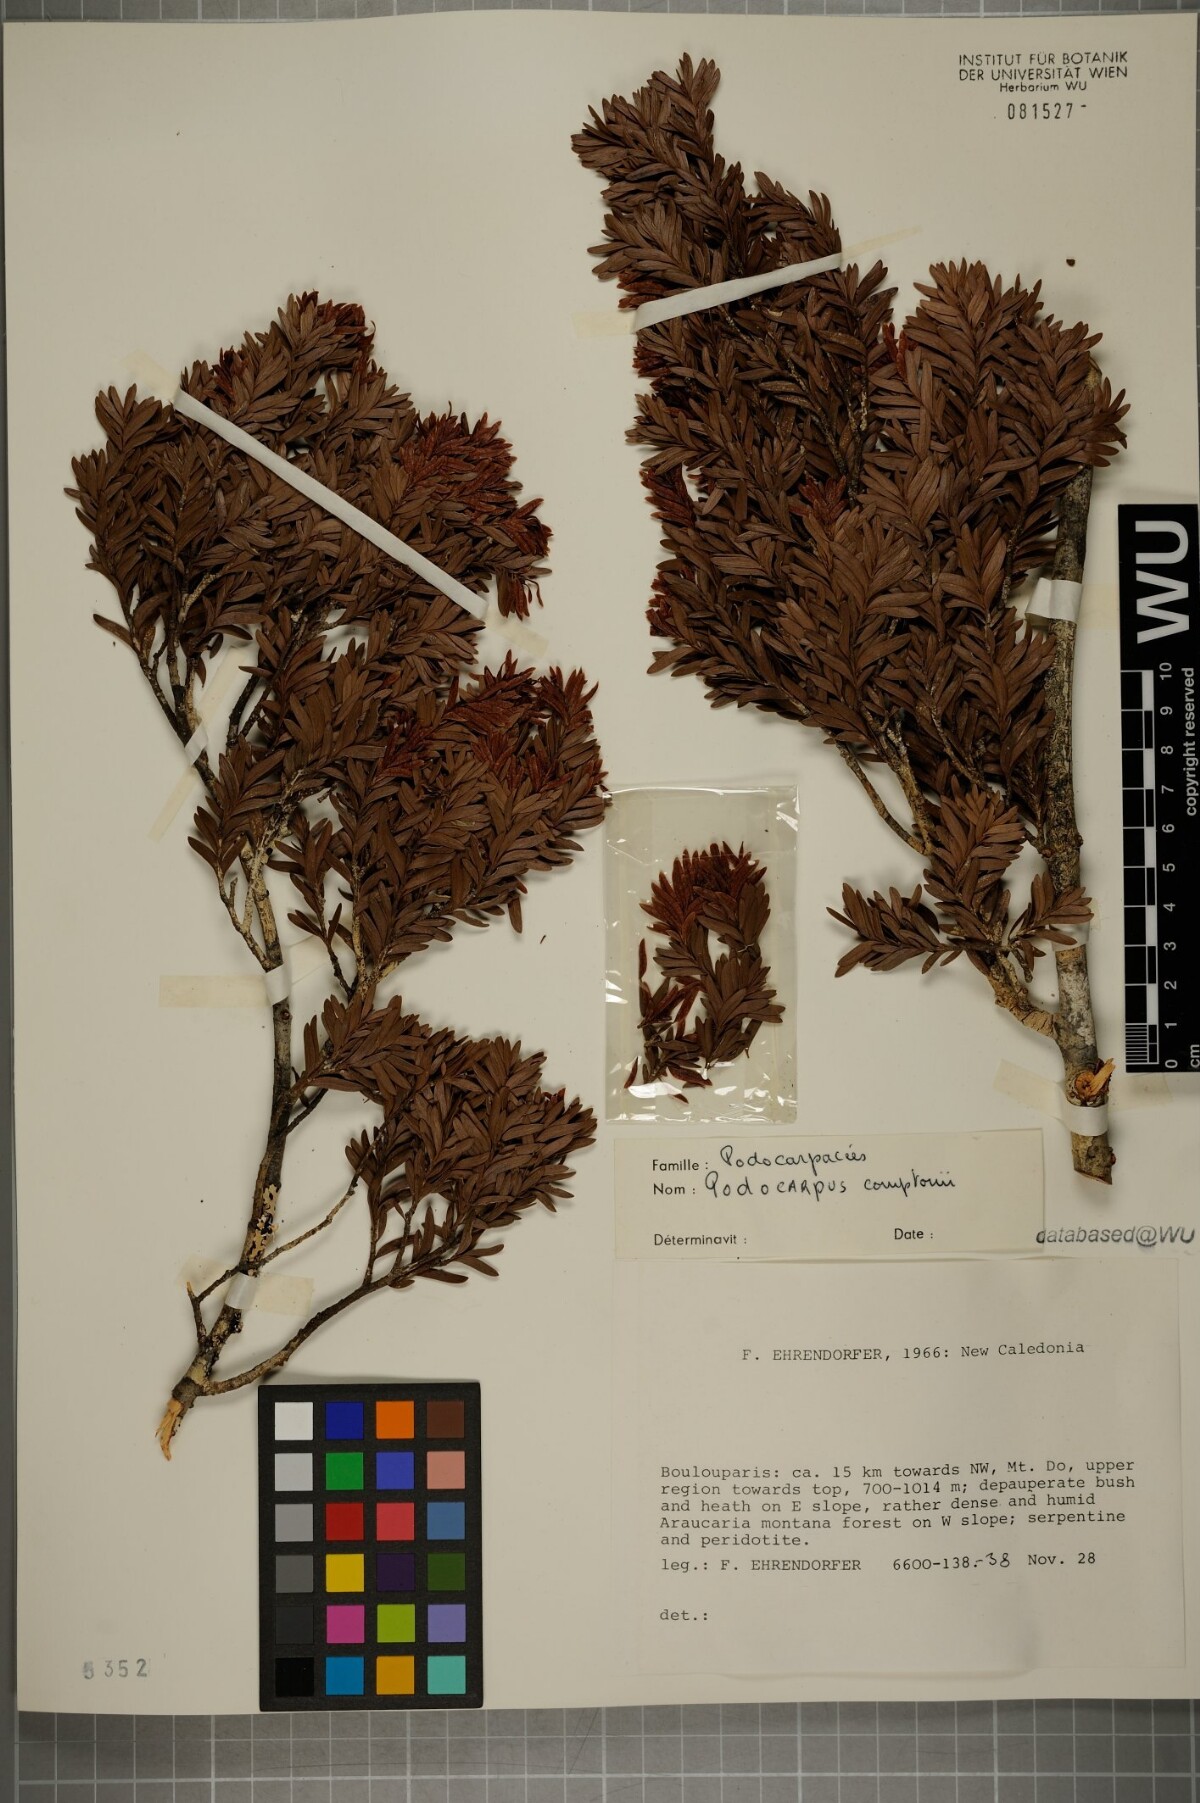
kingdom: Plantae
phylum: Tracheophyta
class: Pinopsida
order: Pinales
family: Podocarpaceae
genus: Retrophyllum
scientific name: Retrophyllum comptonii
